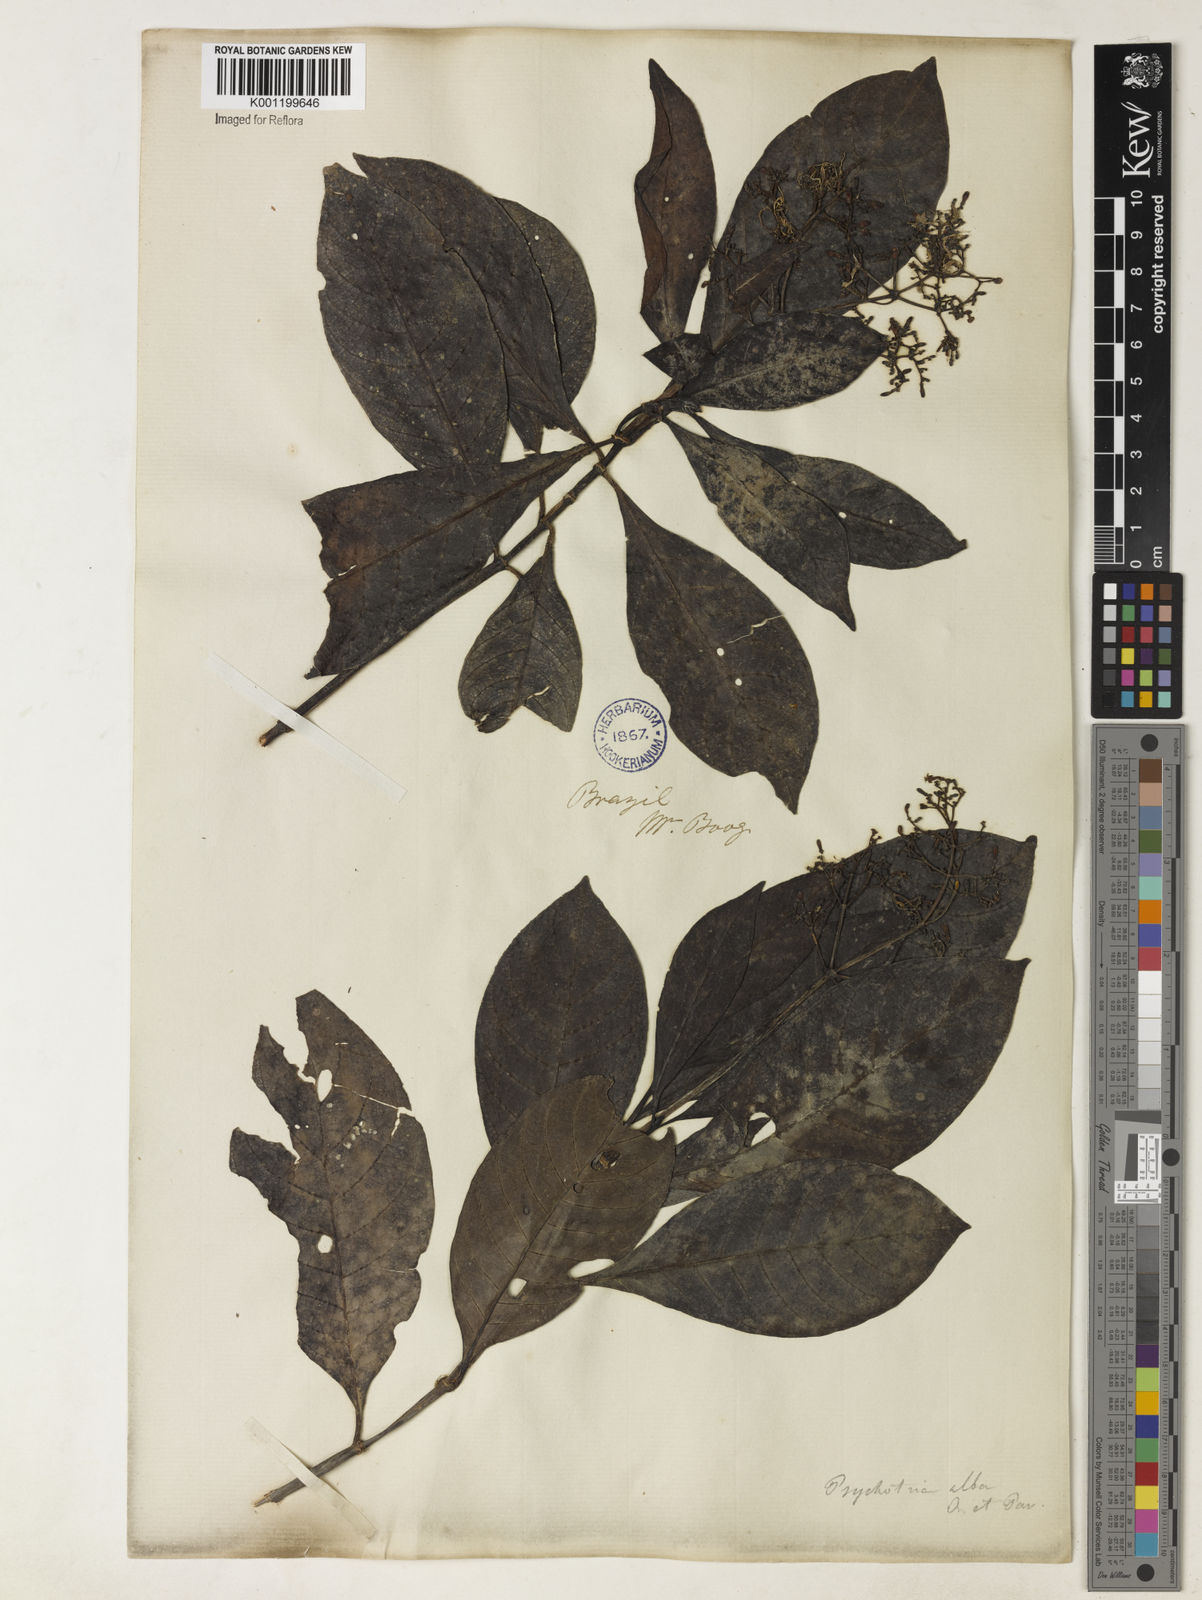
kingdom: Plantae
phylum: Tracheophyta
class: Magnoliopsida
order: Gentianales
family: Rubiaceae
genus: Psychotria
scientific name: Psychotria carthagenensis
